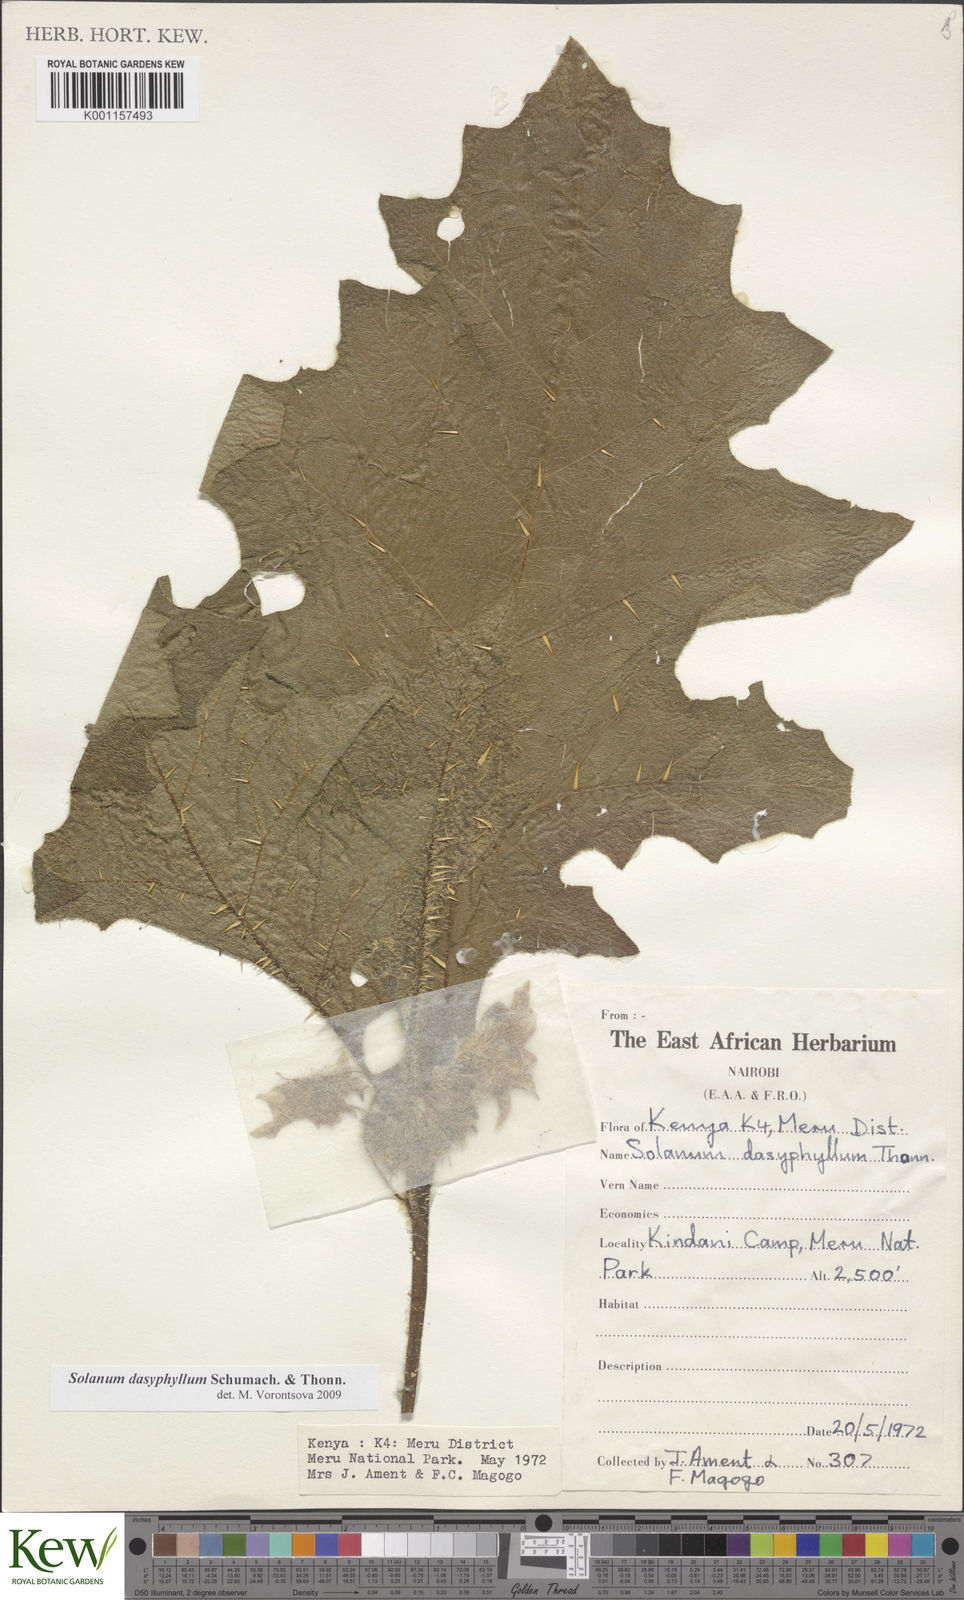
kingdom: Plantae
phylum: Tracheophyta
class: Magnoliopsida
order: Solanales
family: Solanaceae
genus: Solanum
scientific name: Solanum dasyphyllum
